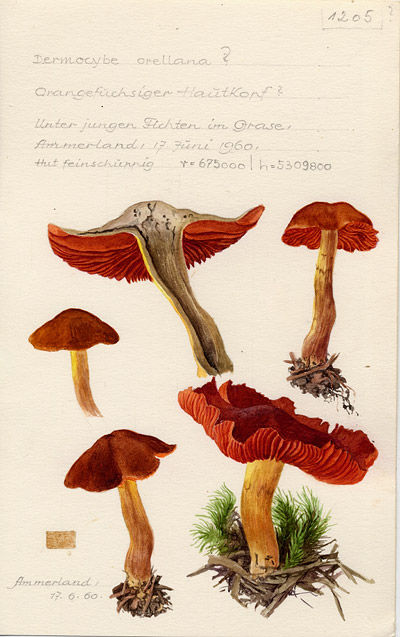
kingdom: Fungi
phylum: Basidiomycota
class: Agaricomycetes
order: Agaricales
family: Cortinariaceae
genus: Cortinarius
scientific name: Cortinarius orellanus
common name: Fool's webcap
